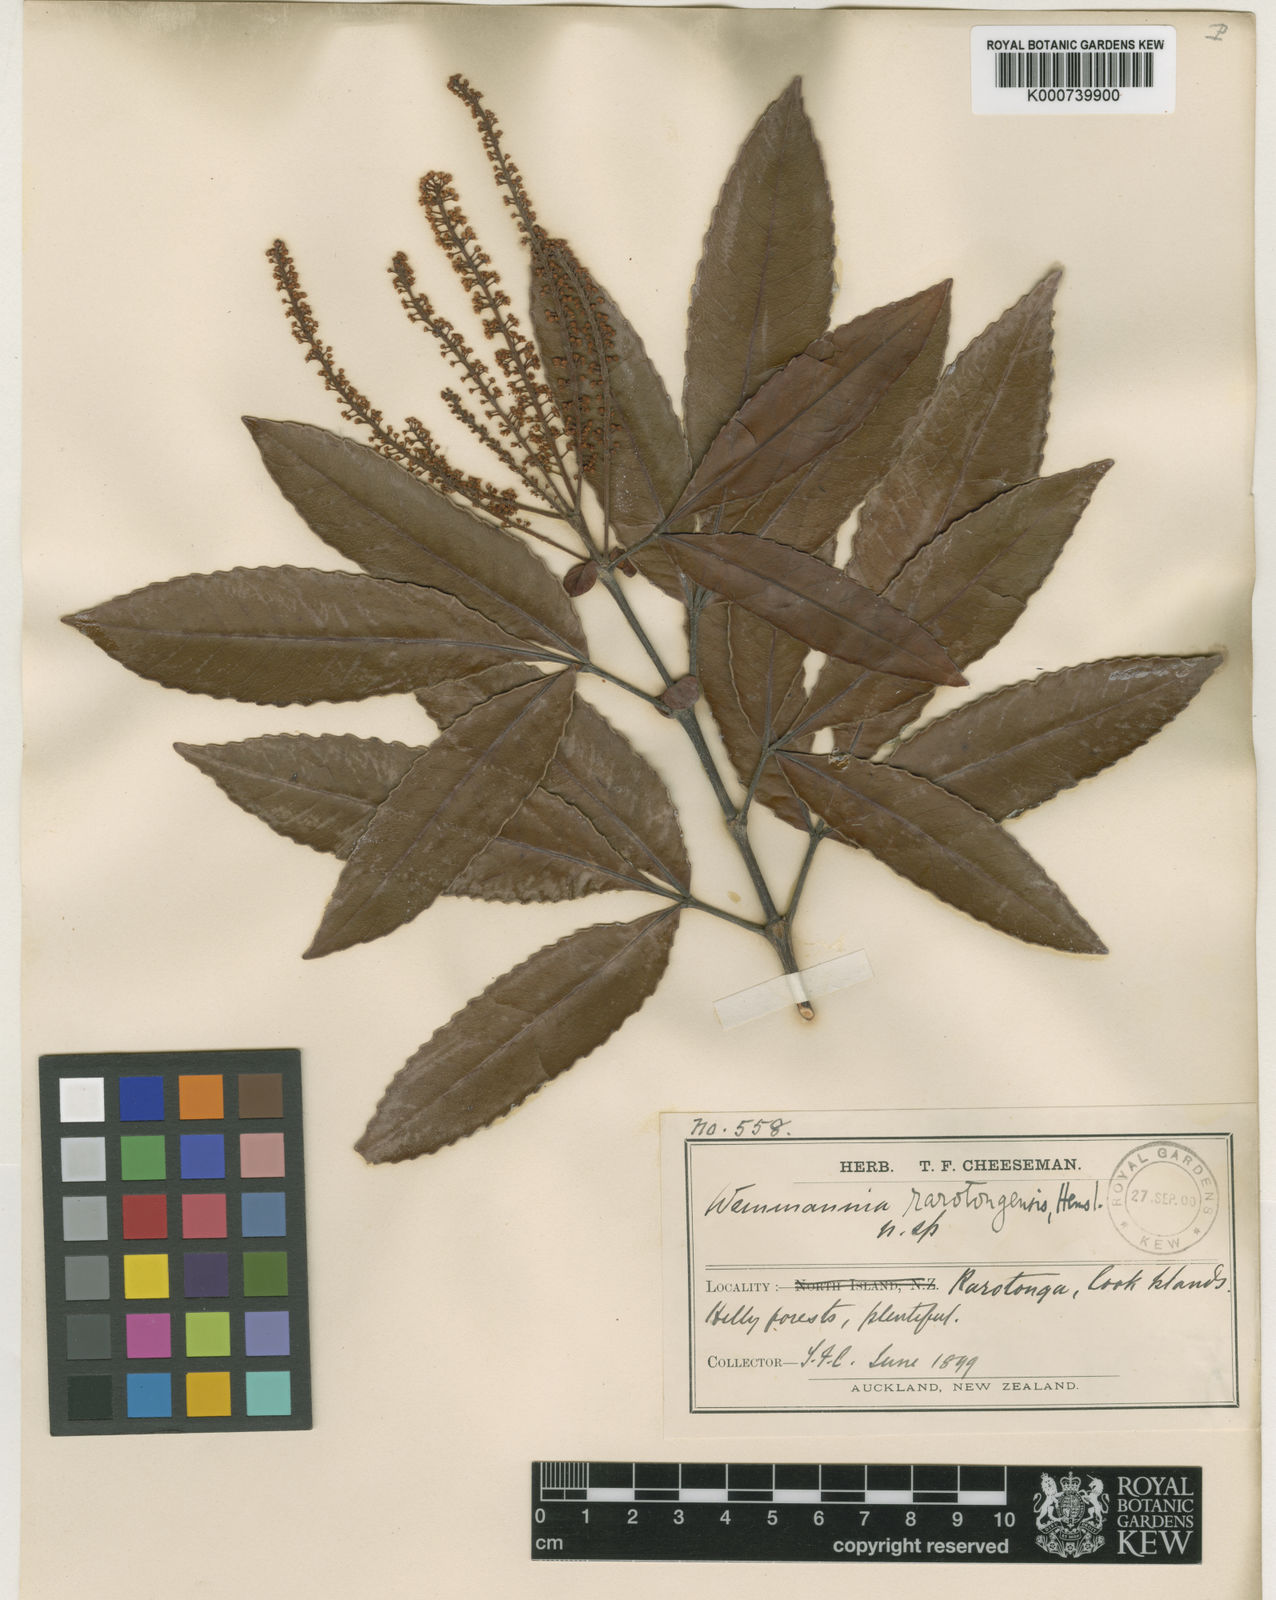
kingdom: Plantae
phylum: Tracheophyta
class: Magnoliopsida
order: Oxalidales
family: Cunoniaceae
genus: Pterophylla
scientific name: Pterophylla samoensis
